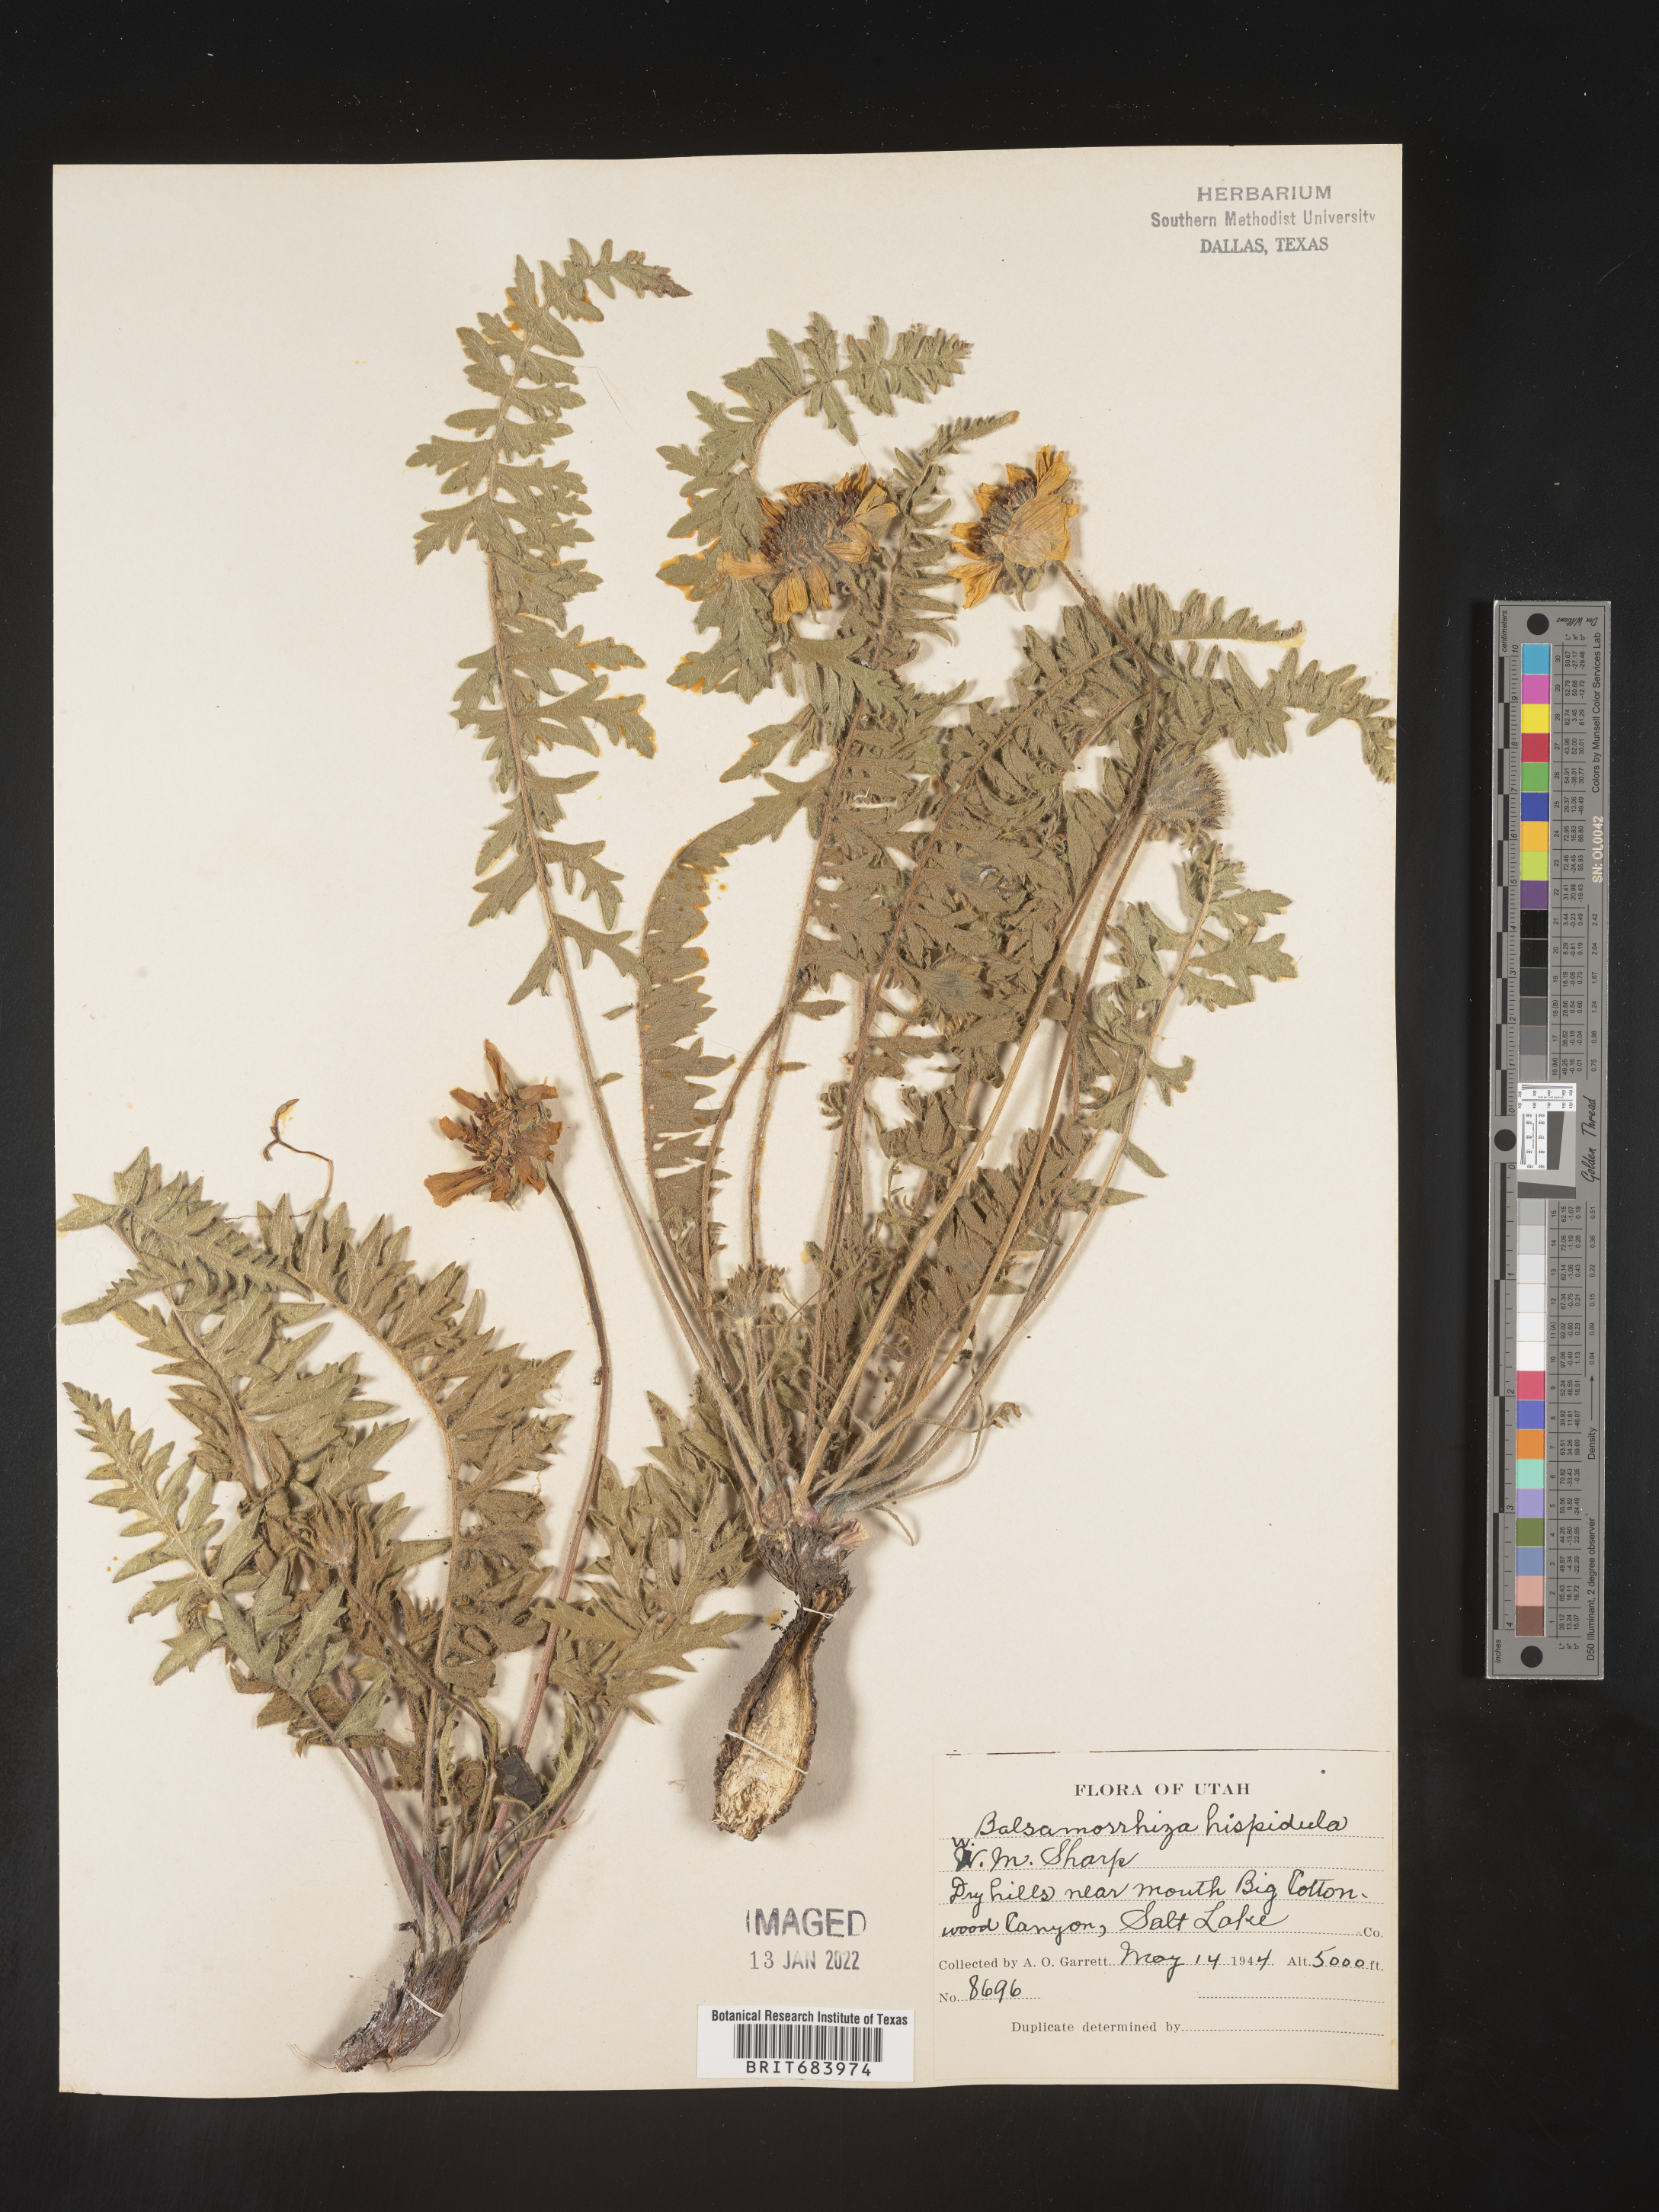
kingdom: Plantae
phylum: Tracheophyta
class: Magnoliopsida
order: Asterales
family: Asteraceae
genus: Balsamorhiza
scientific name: Balsamorhiza
